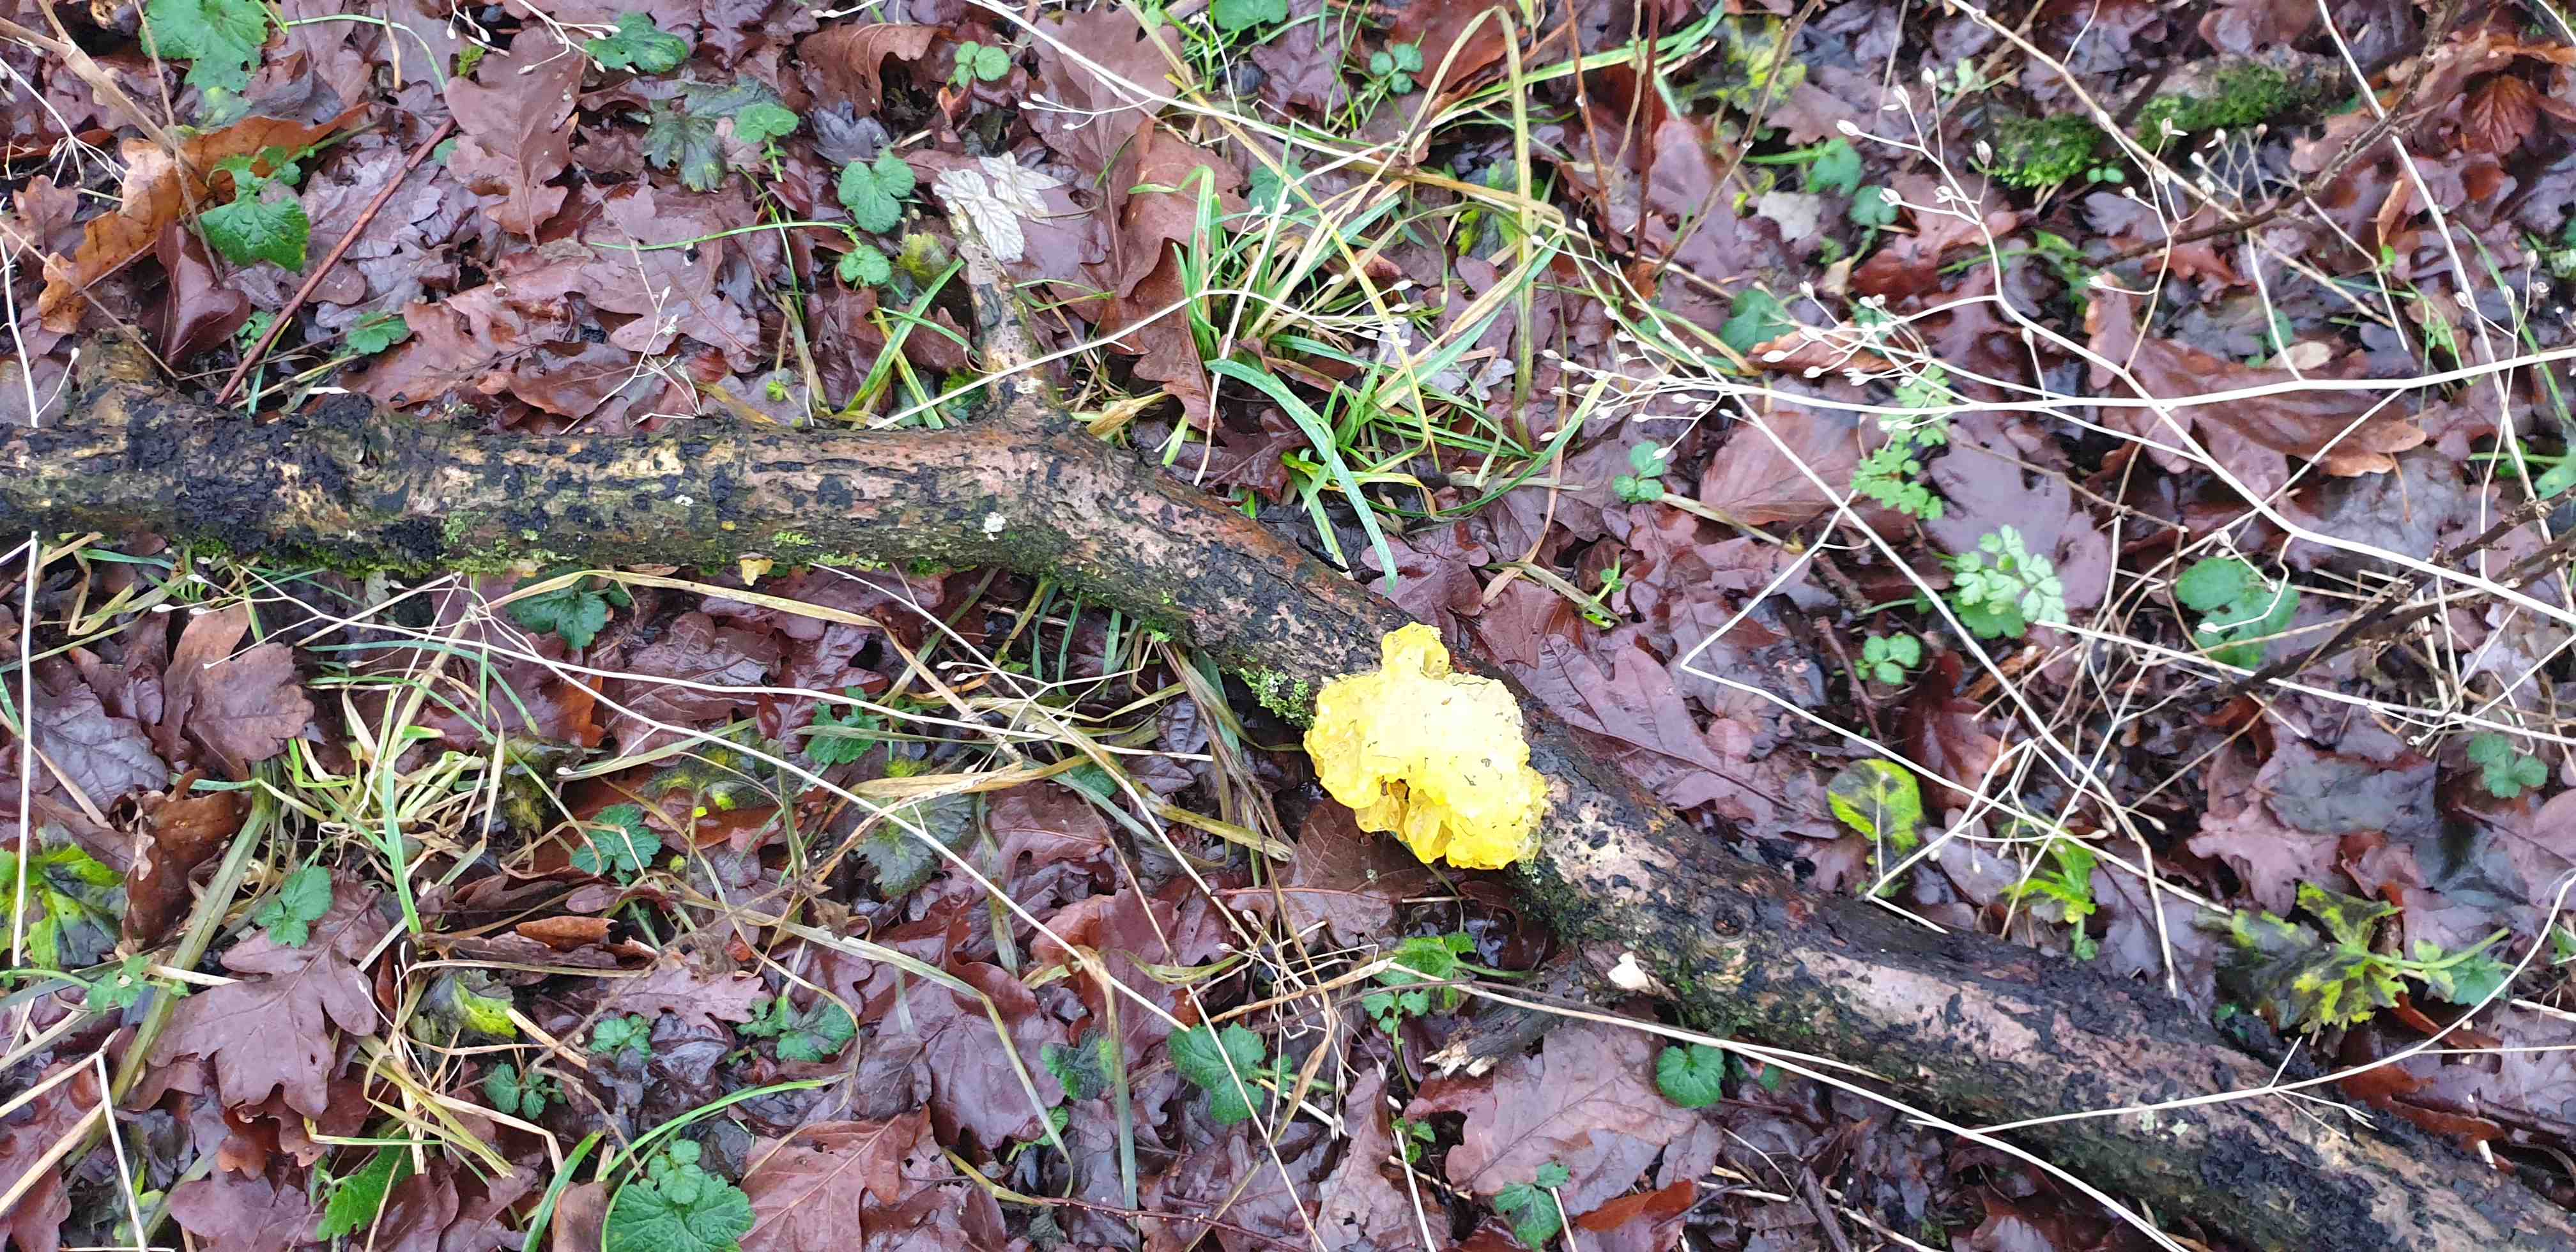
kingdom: Fungi
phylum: Basidiomycota
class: Tremellomycetes
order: Tremellales
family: Tremellaceae
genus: Tremella
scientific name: Tremella mesenterica
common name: gul bævresvamp
